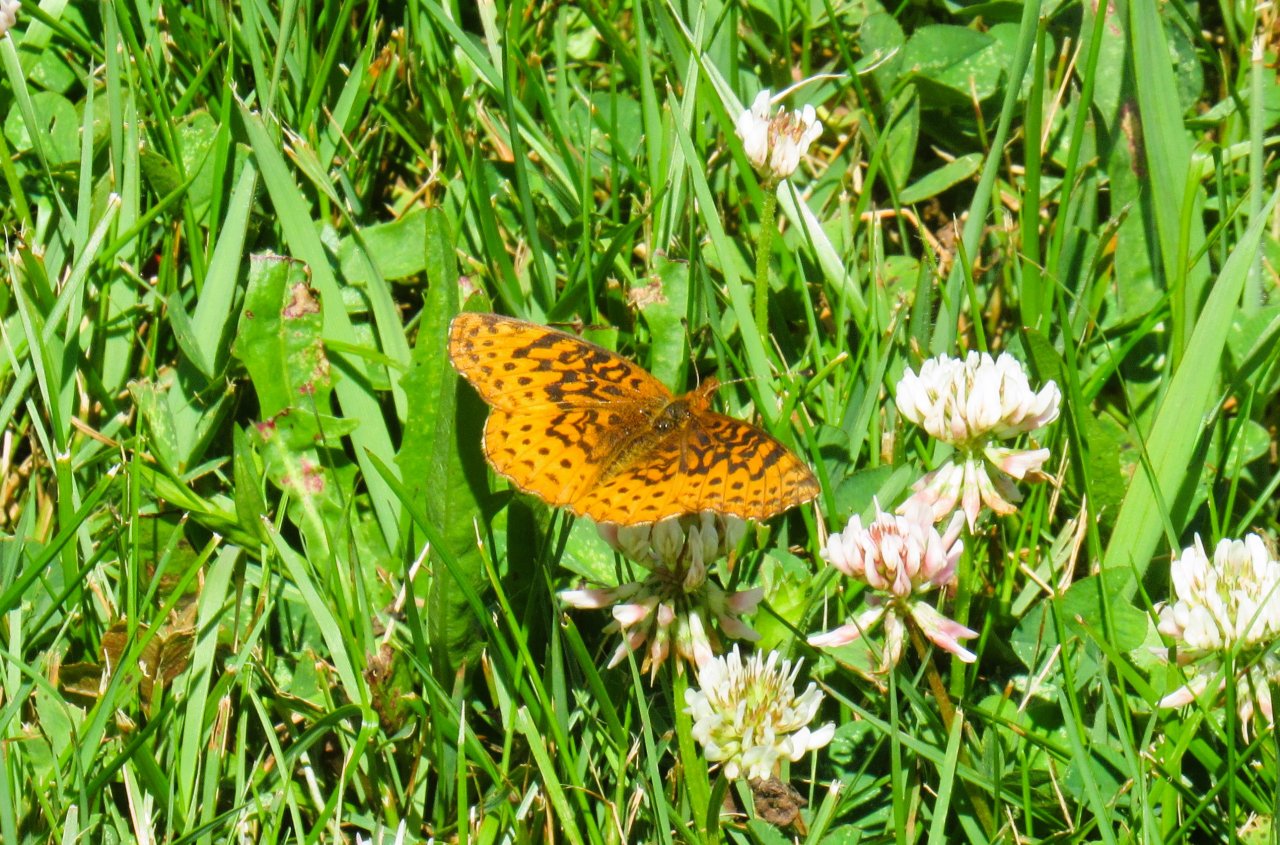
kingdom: Animalia
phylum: Arthropoda
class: Insecta
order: Lepidoptera
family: Nymphalidae
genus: Clossiana
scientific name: Clossiana toddi
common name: Meadow Fritillary
